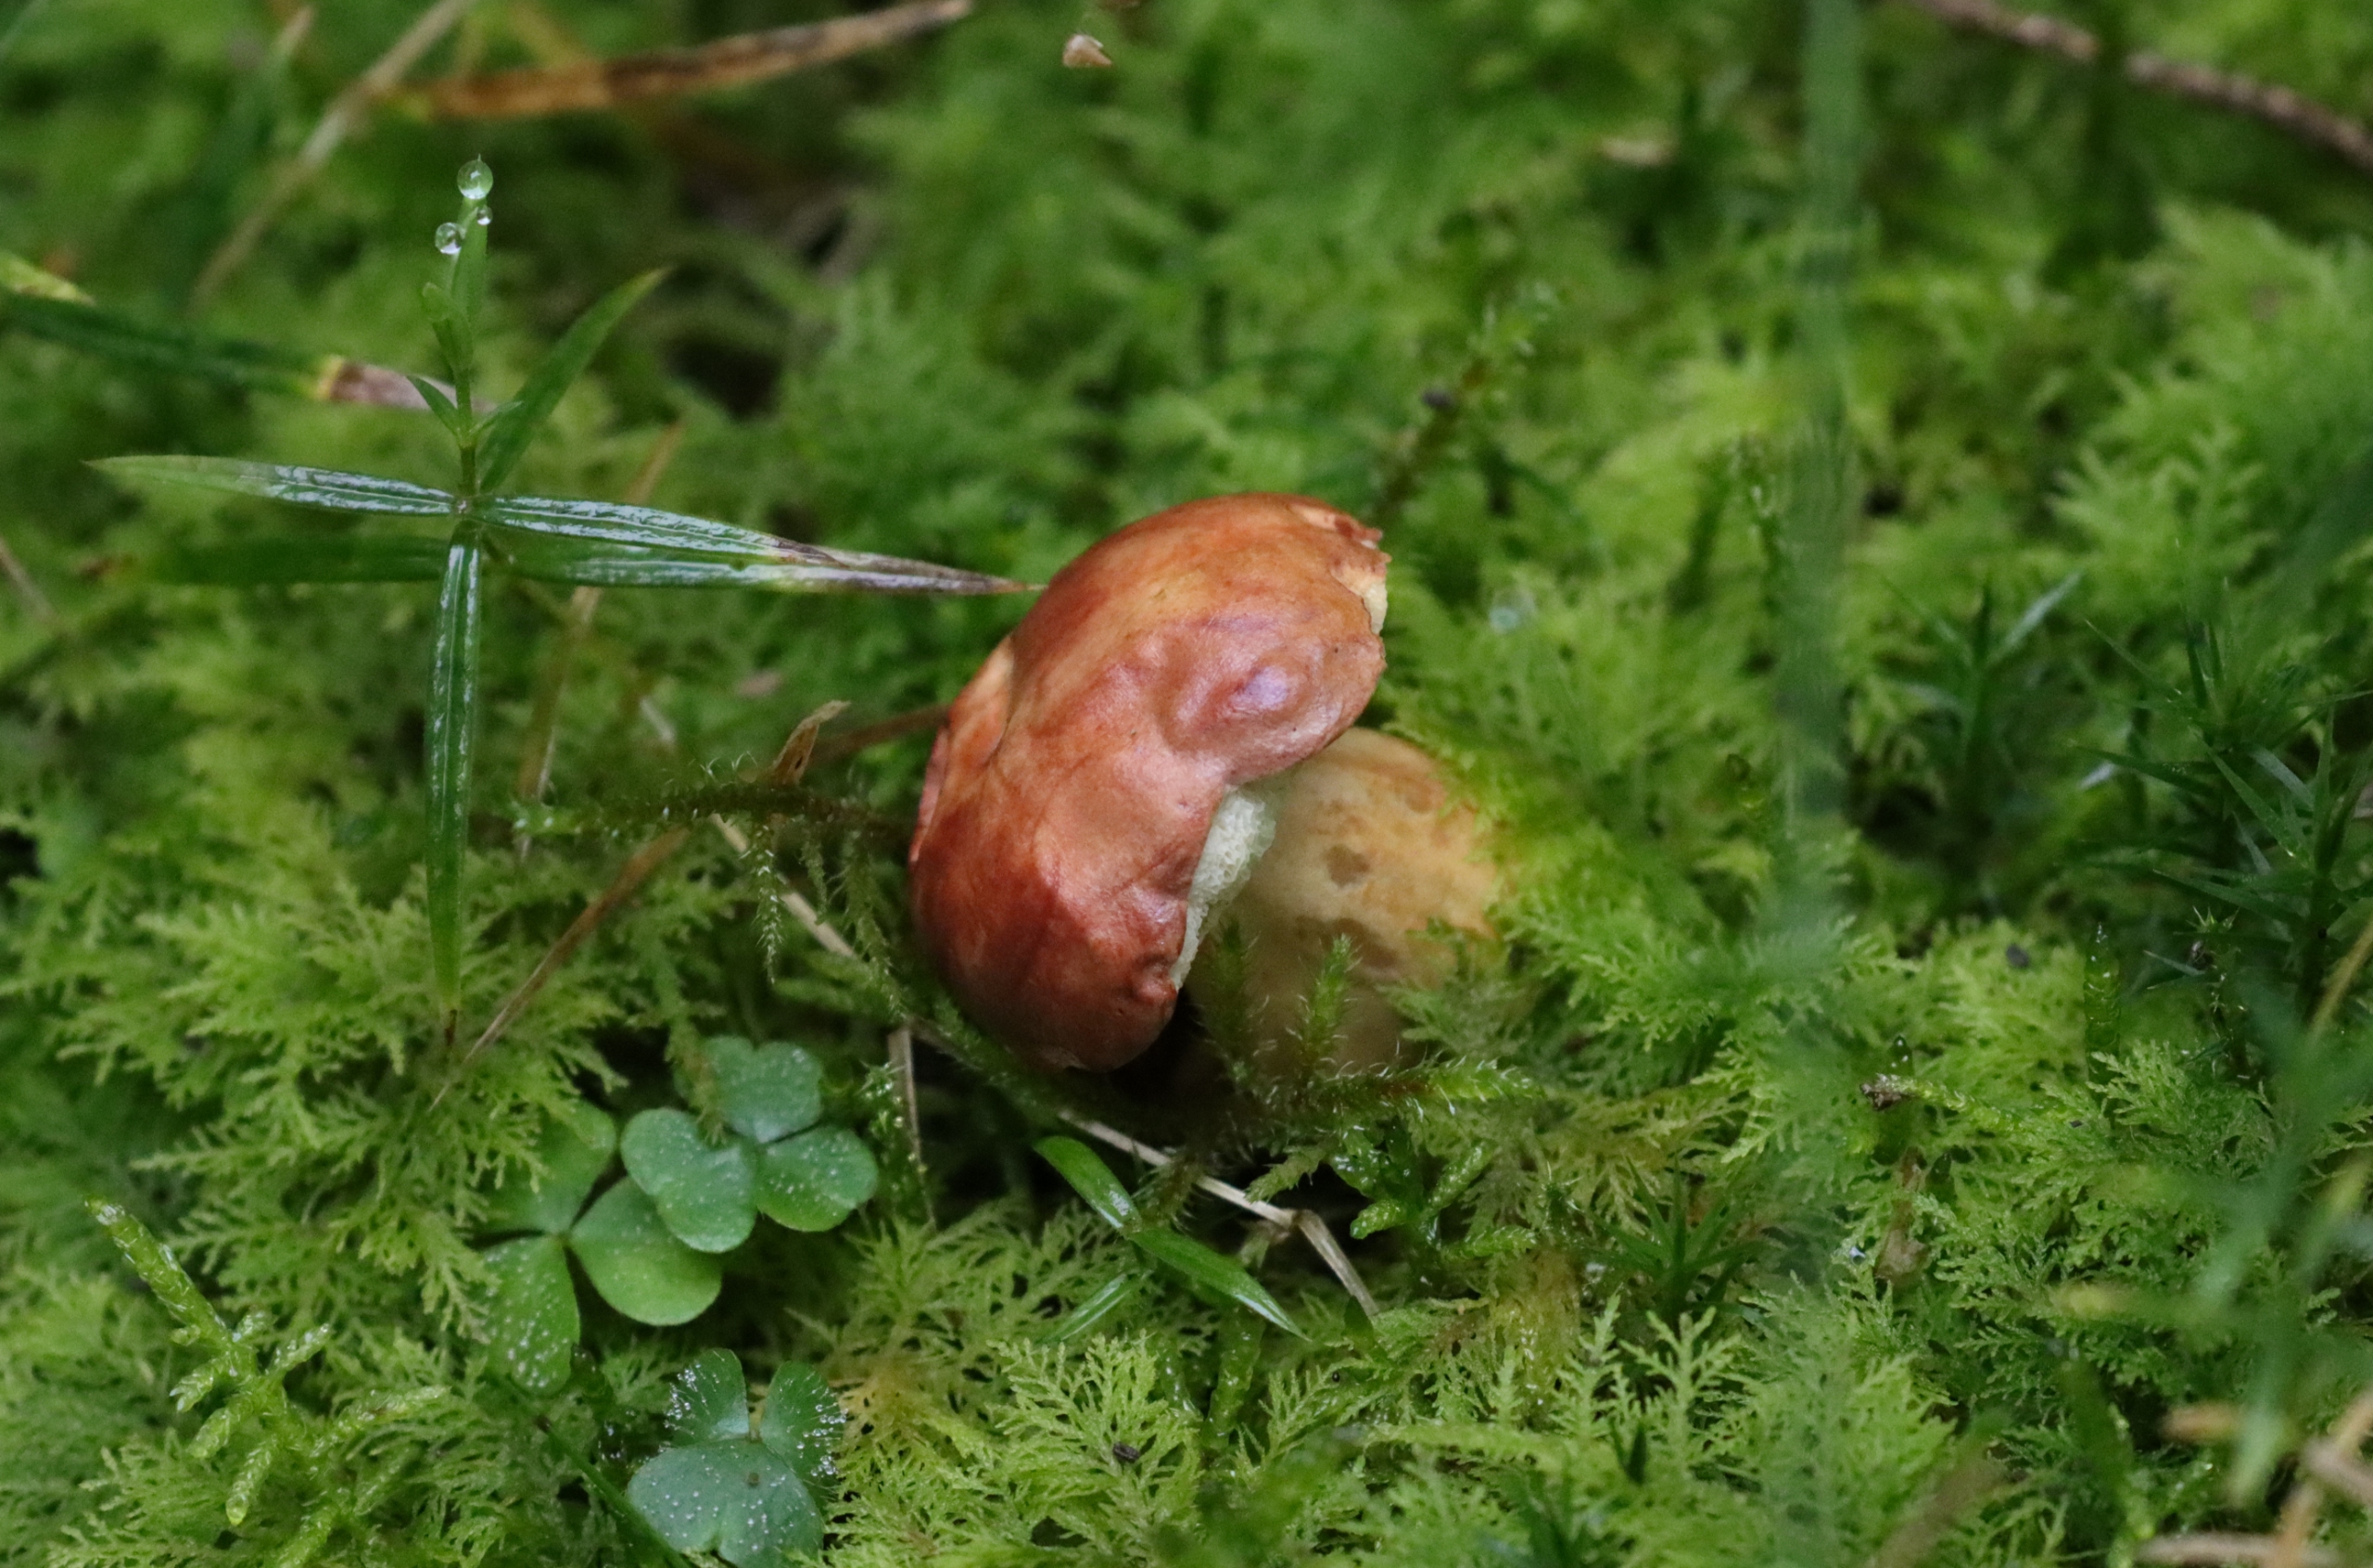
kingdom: Fungi
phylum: Basidiomycota
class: Agaricomycetes
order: Boletales
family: Boletaceae
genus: Imleria
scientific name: Imleria badia
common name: Brunstokket rørhat
